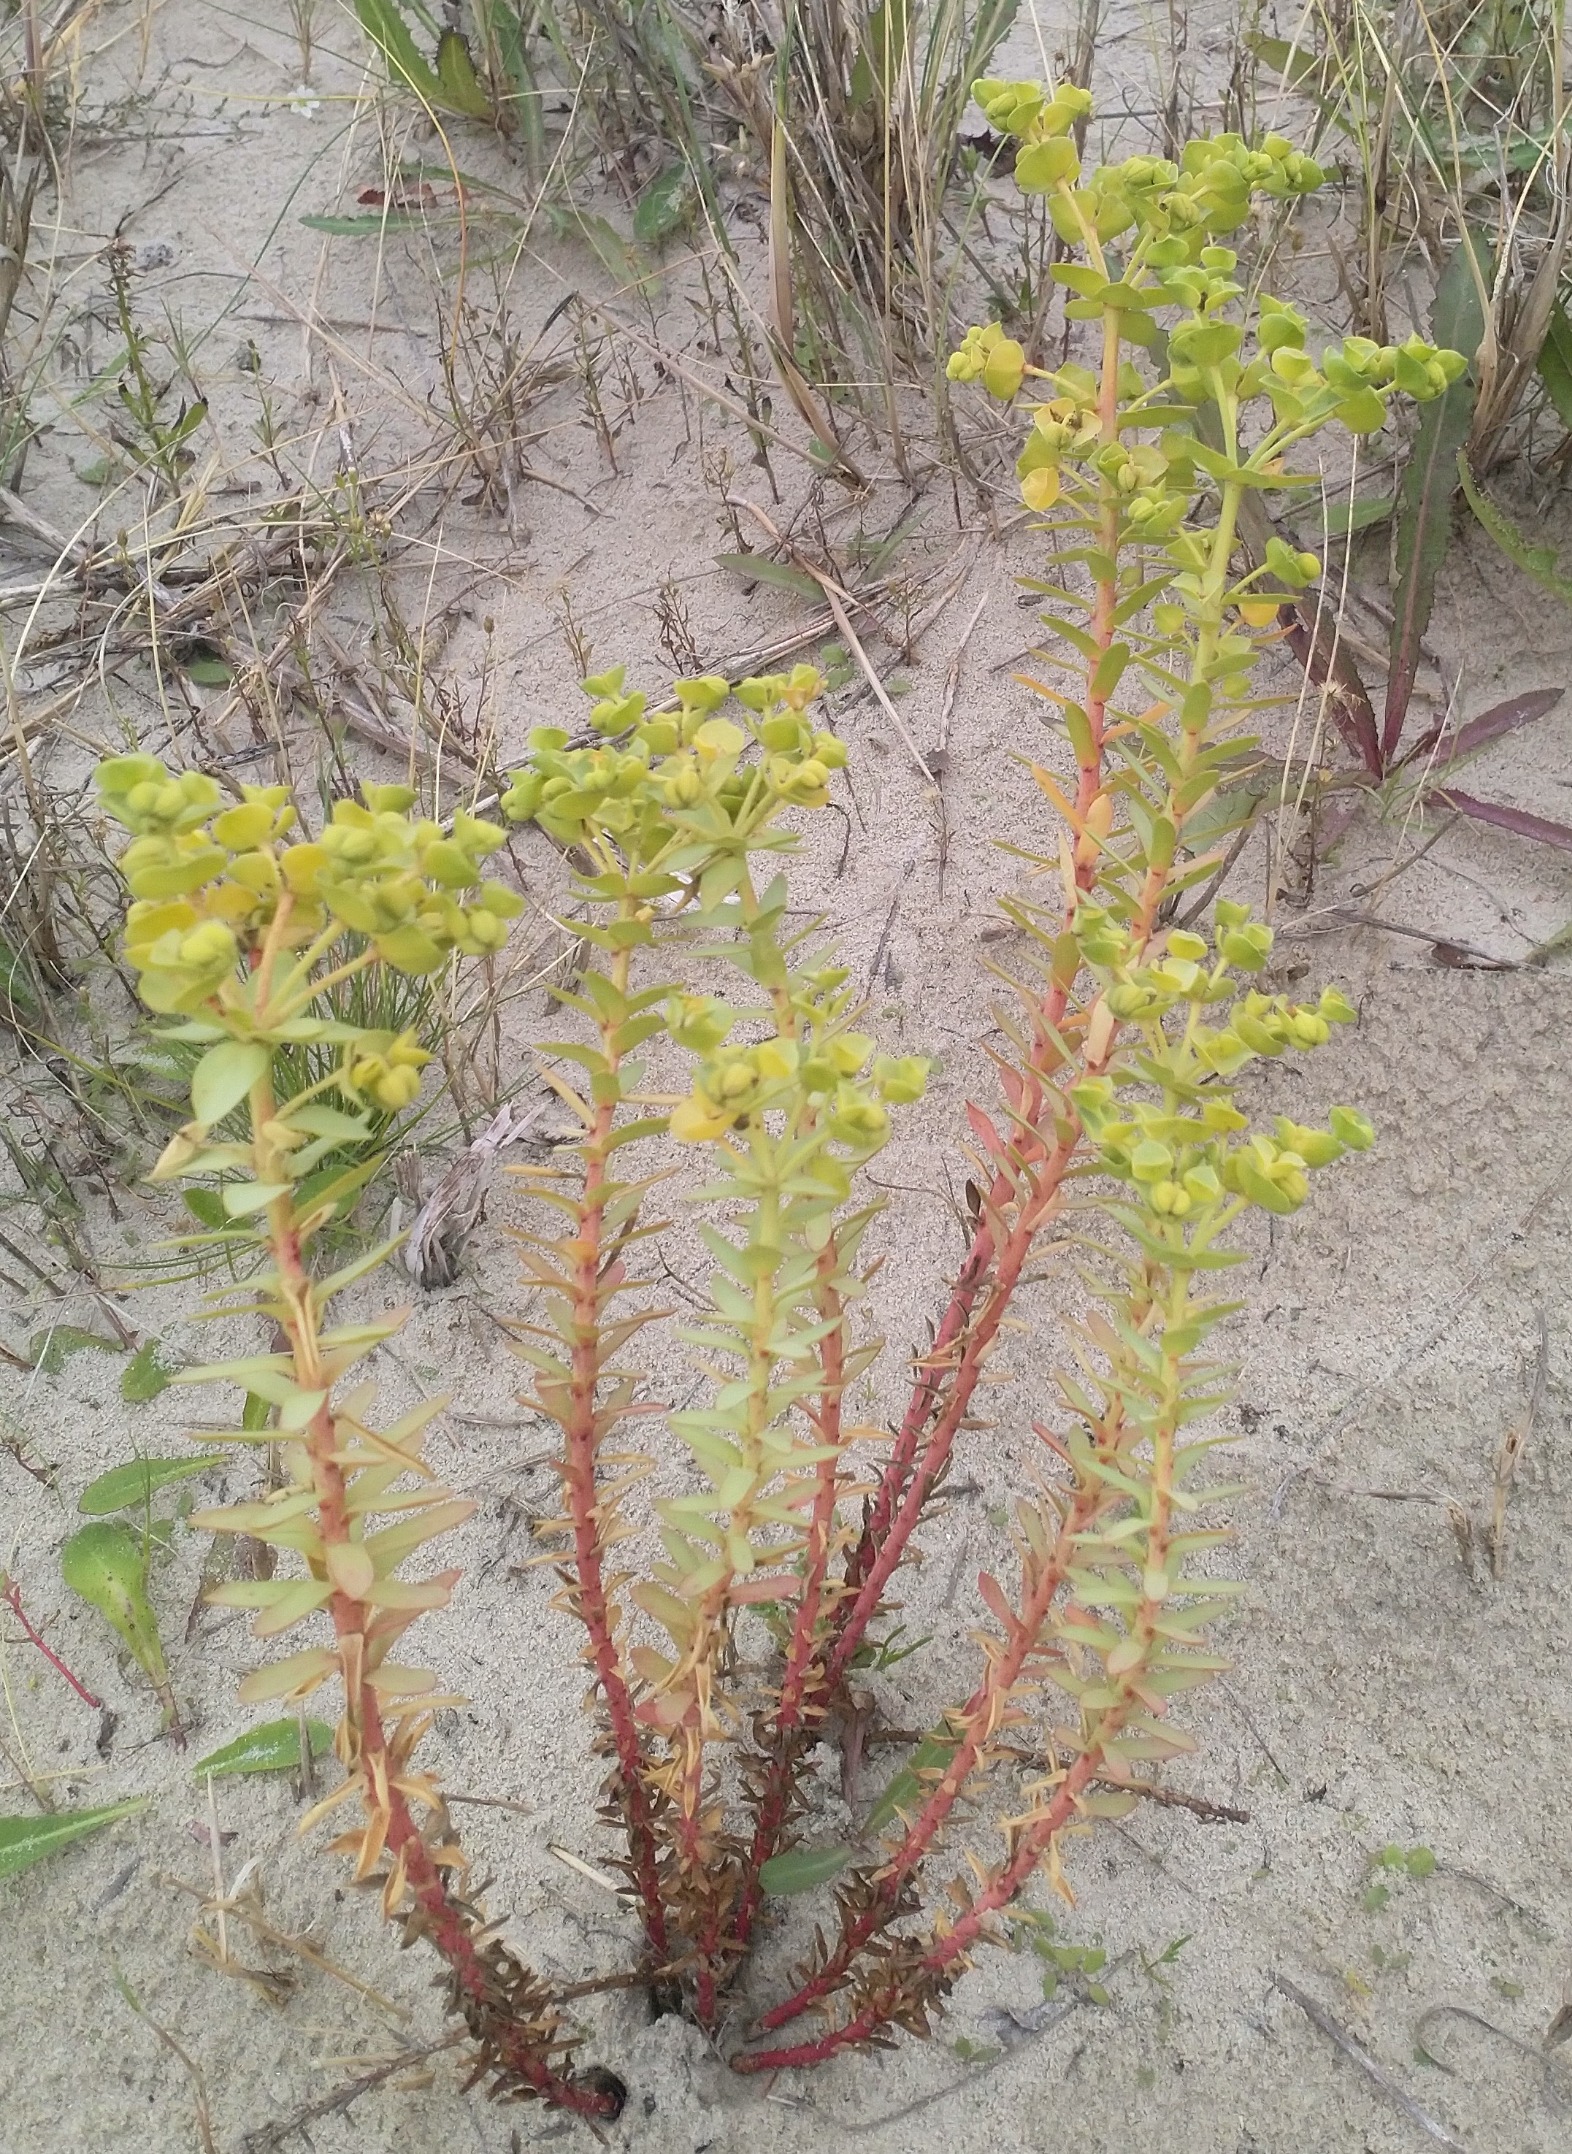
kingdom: Plantae
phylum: Tracheophyta
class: Magnoliopsida
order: Malpighiales
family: Euphorbiaceae
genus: Euphorbia
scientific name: Euphorbia paralias
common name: Kyst-vortemælk
